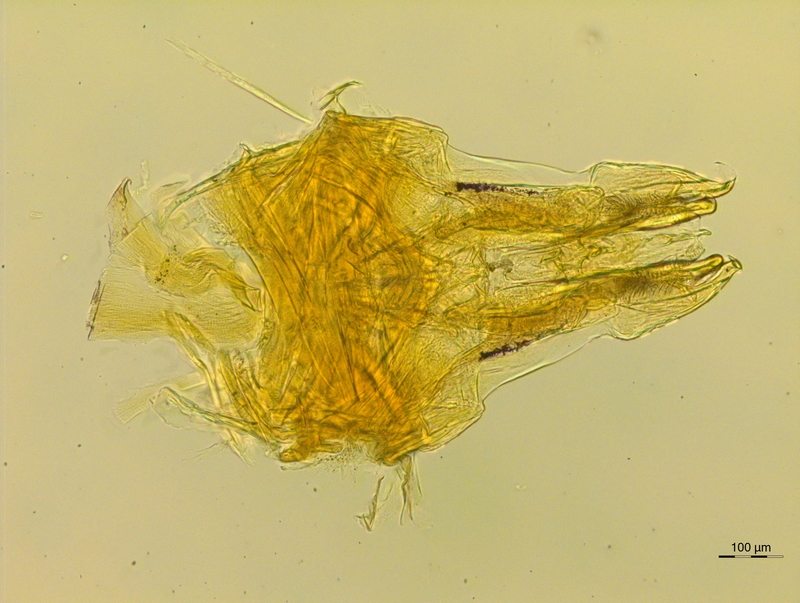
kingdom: Animalia
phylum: Arthropoda
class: Diplopoda
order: Chordeumatida
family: Anthroleucosomatidae
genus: Anamastigona
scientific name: Anamastigona bilselii
